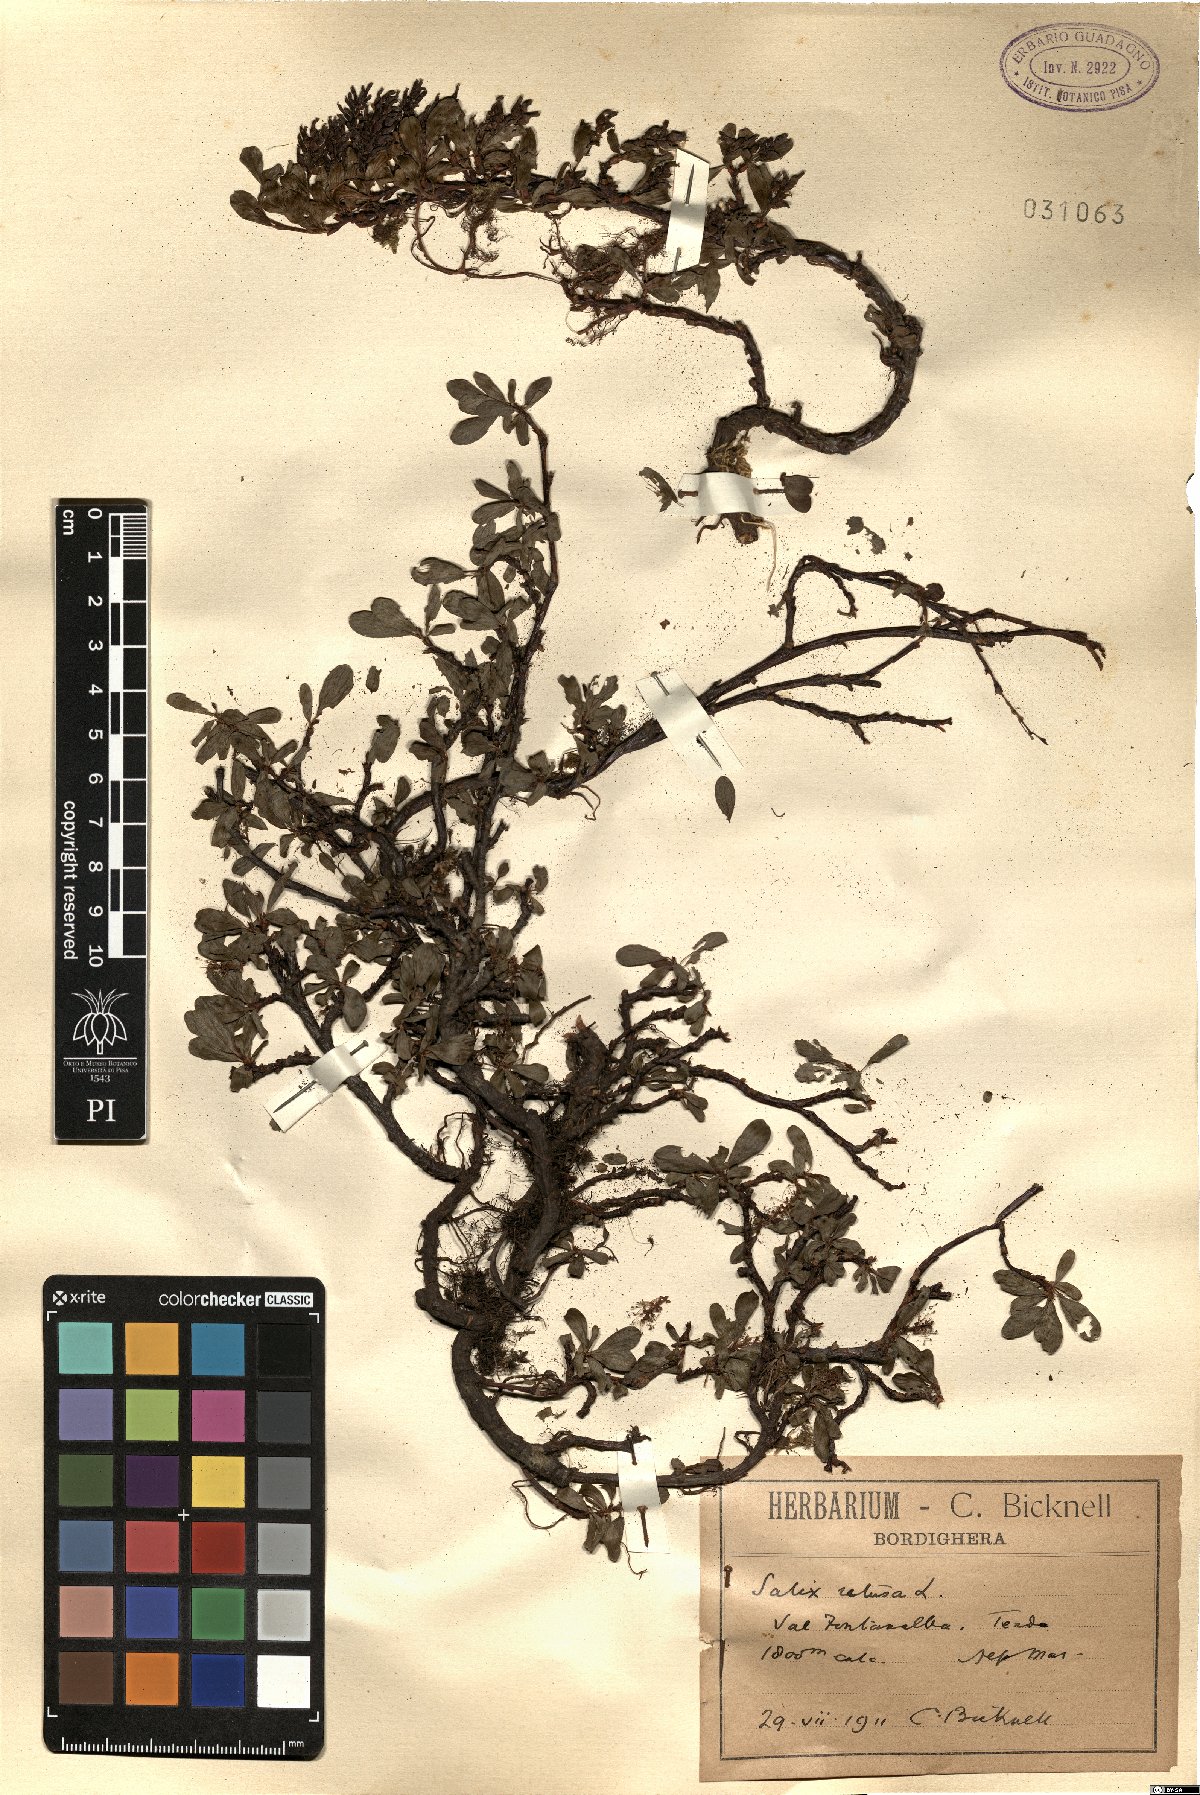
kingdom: Plantae
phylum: Tracheophyta
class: Magnoliopsida
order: Malpighiales
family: Salicaceae
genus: Salix
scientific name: Salix retusa
